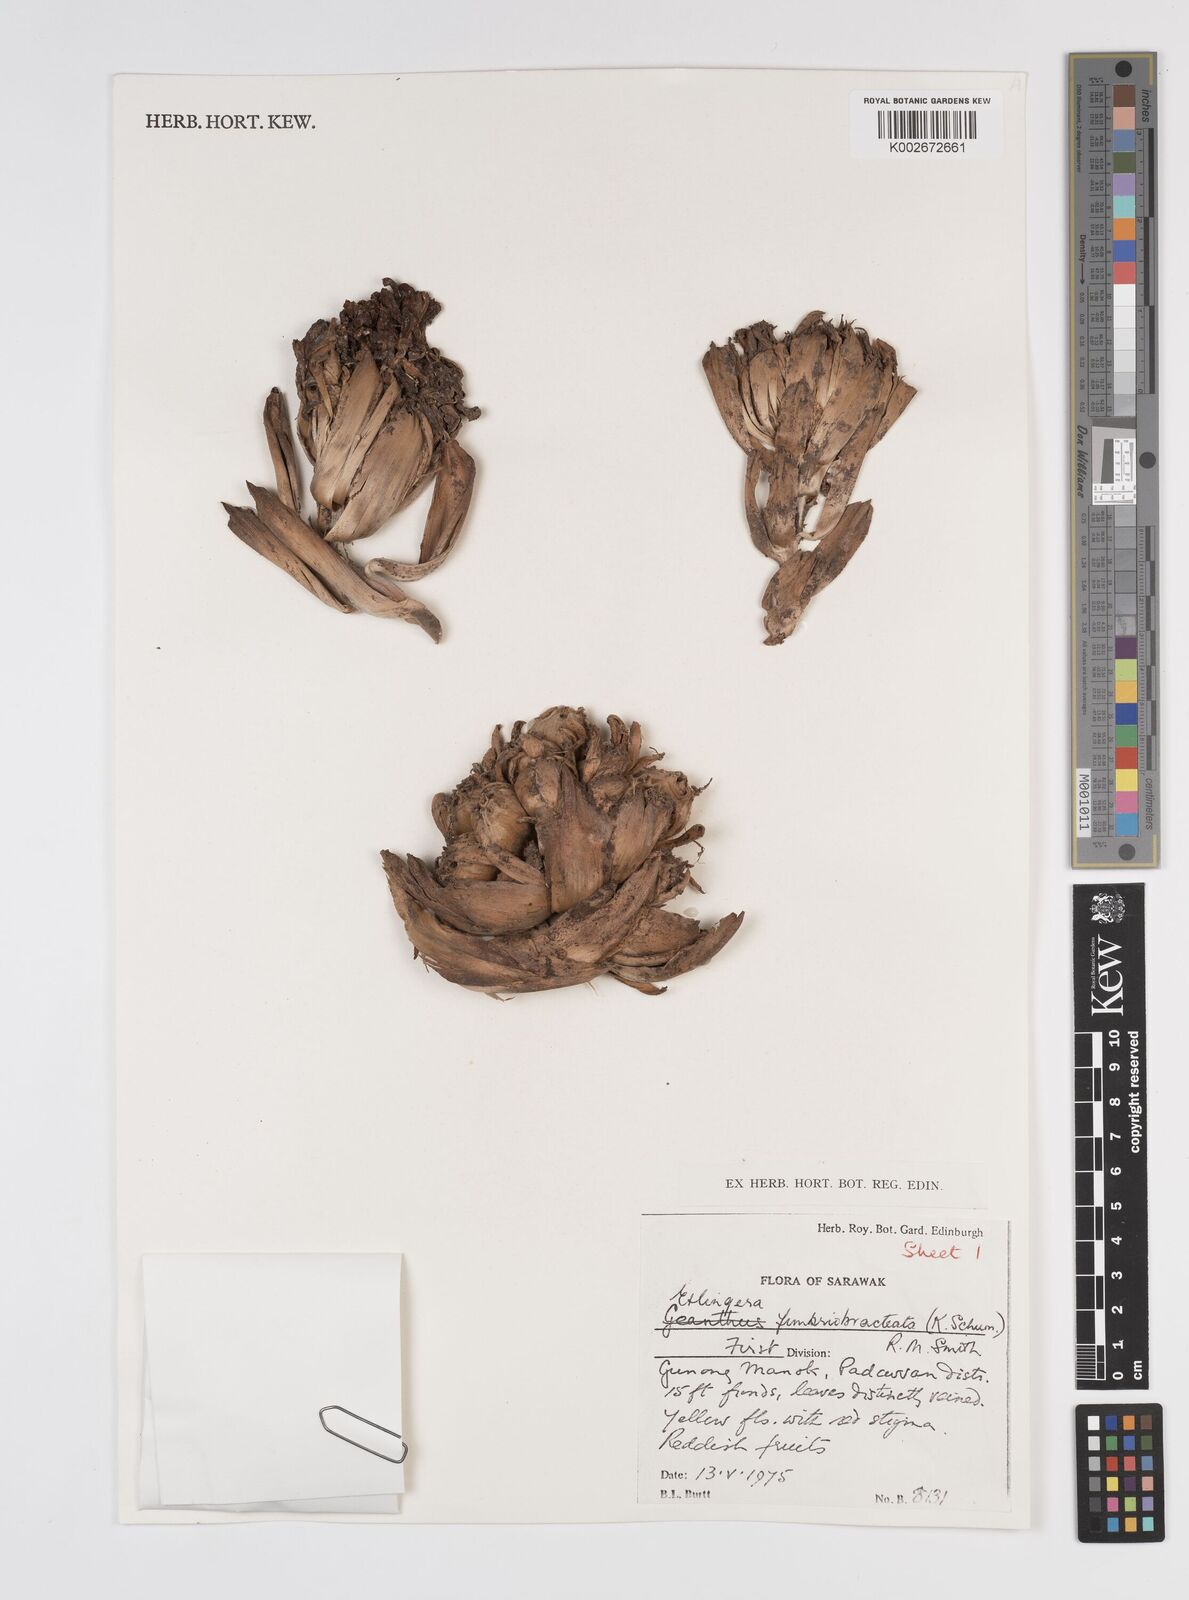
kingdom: Plantae
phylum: Tracheophyta
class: Liliopsida
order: Zingiberales
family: Zingiberaceae
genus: Etlingera
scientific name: Etlingera fimbriobracteata
